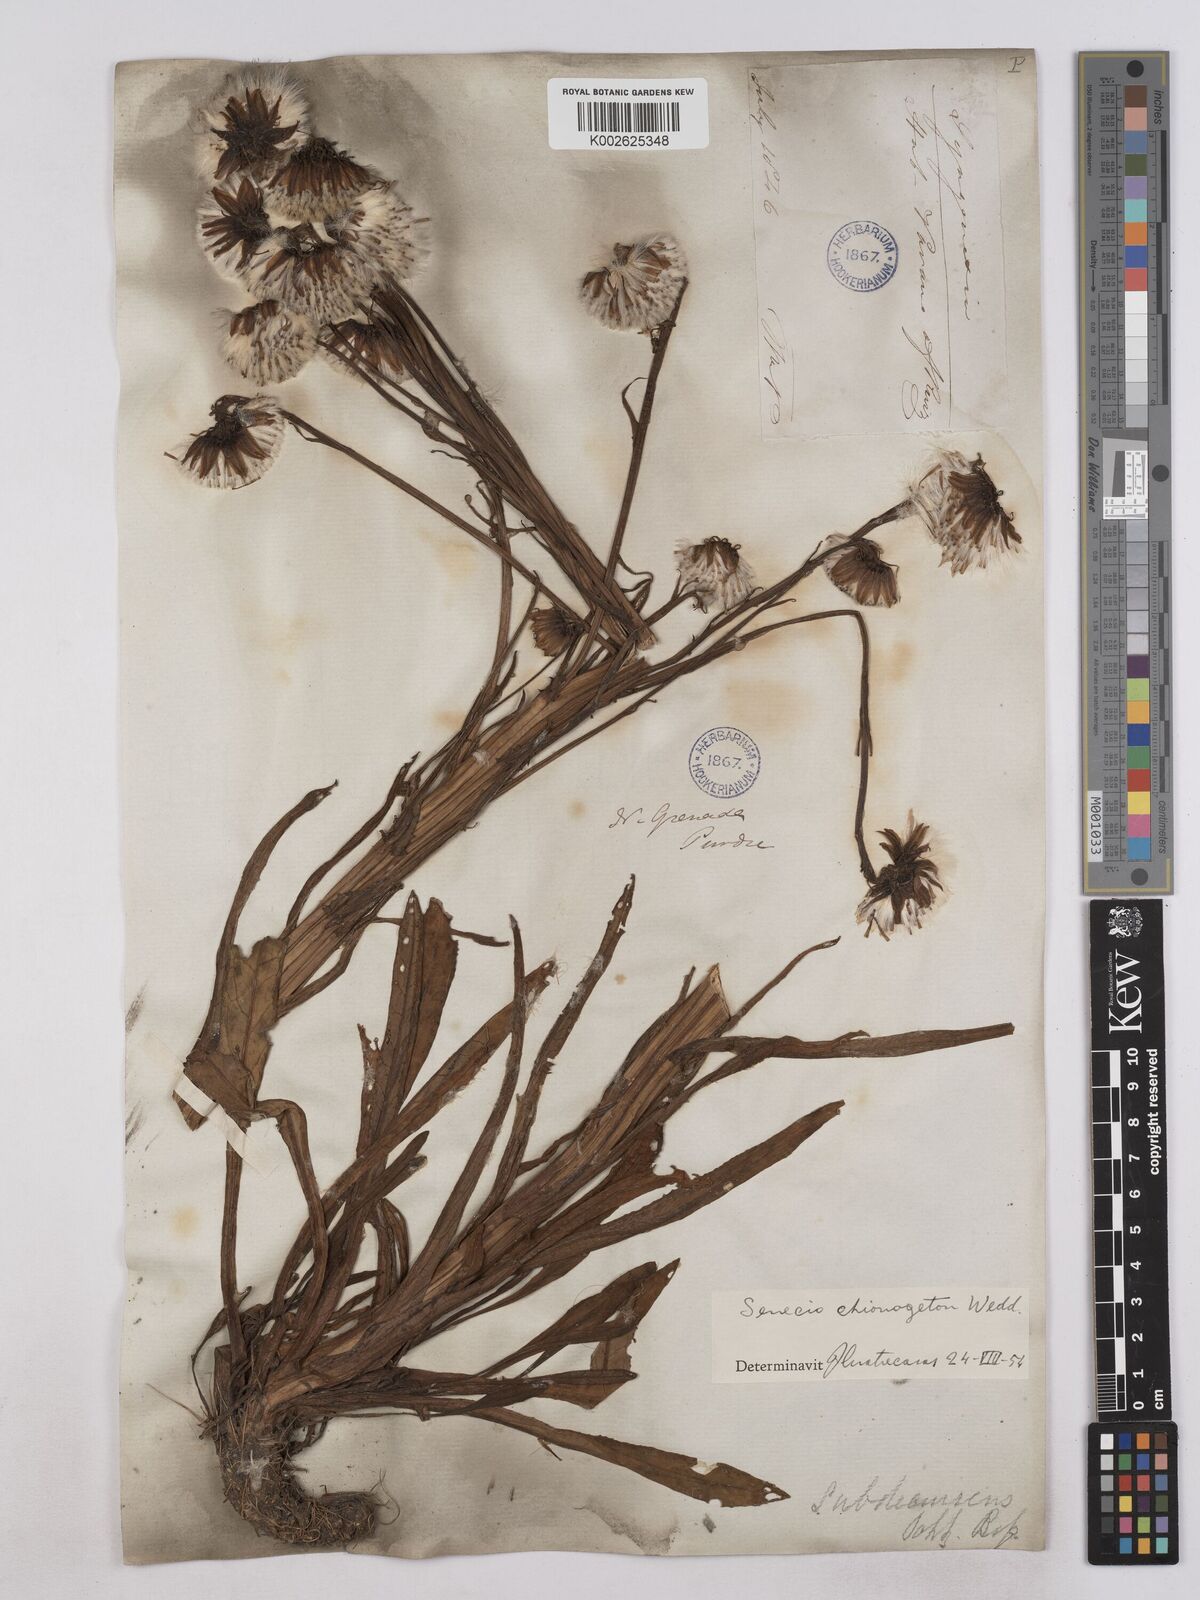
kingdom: Plantae
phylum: Tracheophyta
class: Magnoliopsida
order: Asterales
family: Asteraceae
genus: Senecio
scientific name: Senecio chionogeton
